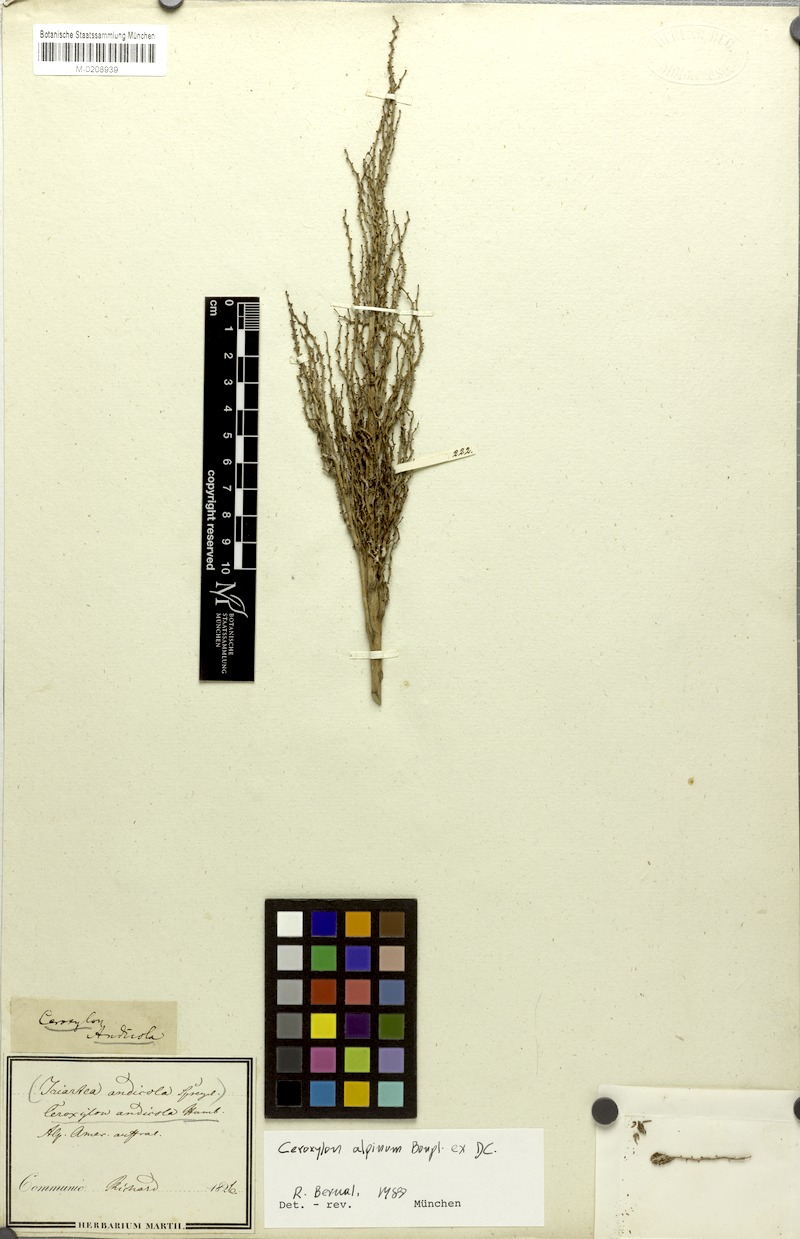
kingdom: Plantae
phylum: Tracheophyta
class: Liliopsida
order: Arecales
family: Arecaceae
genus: Ceroxylon
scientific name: Ceroxylon alpinum
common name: Wax palm
